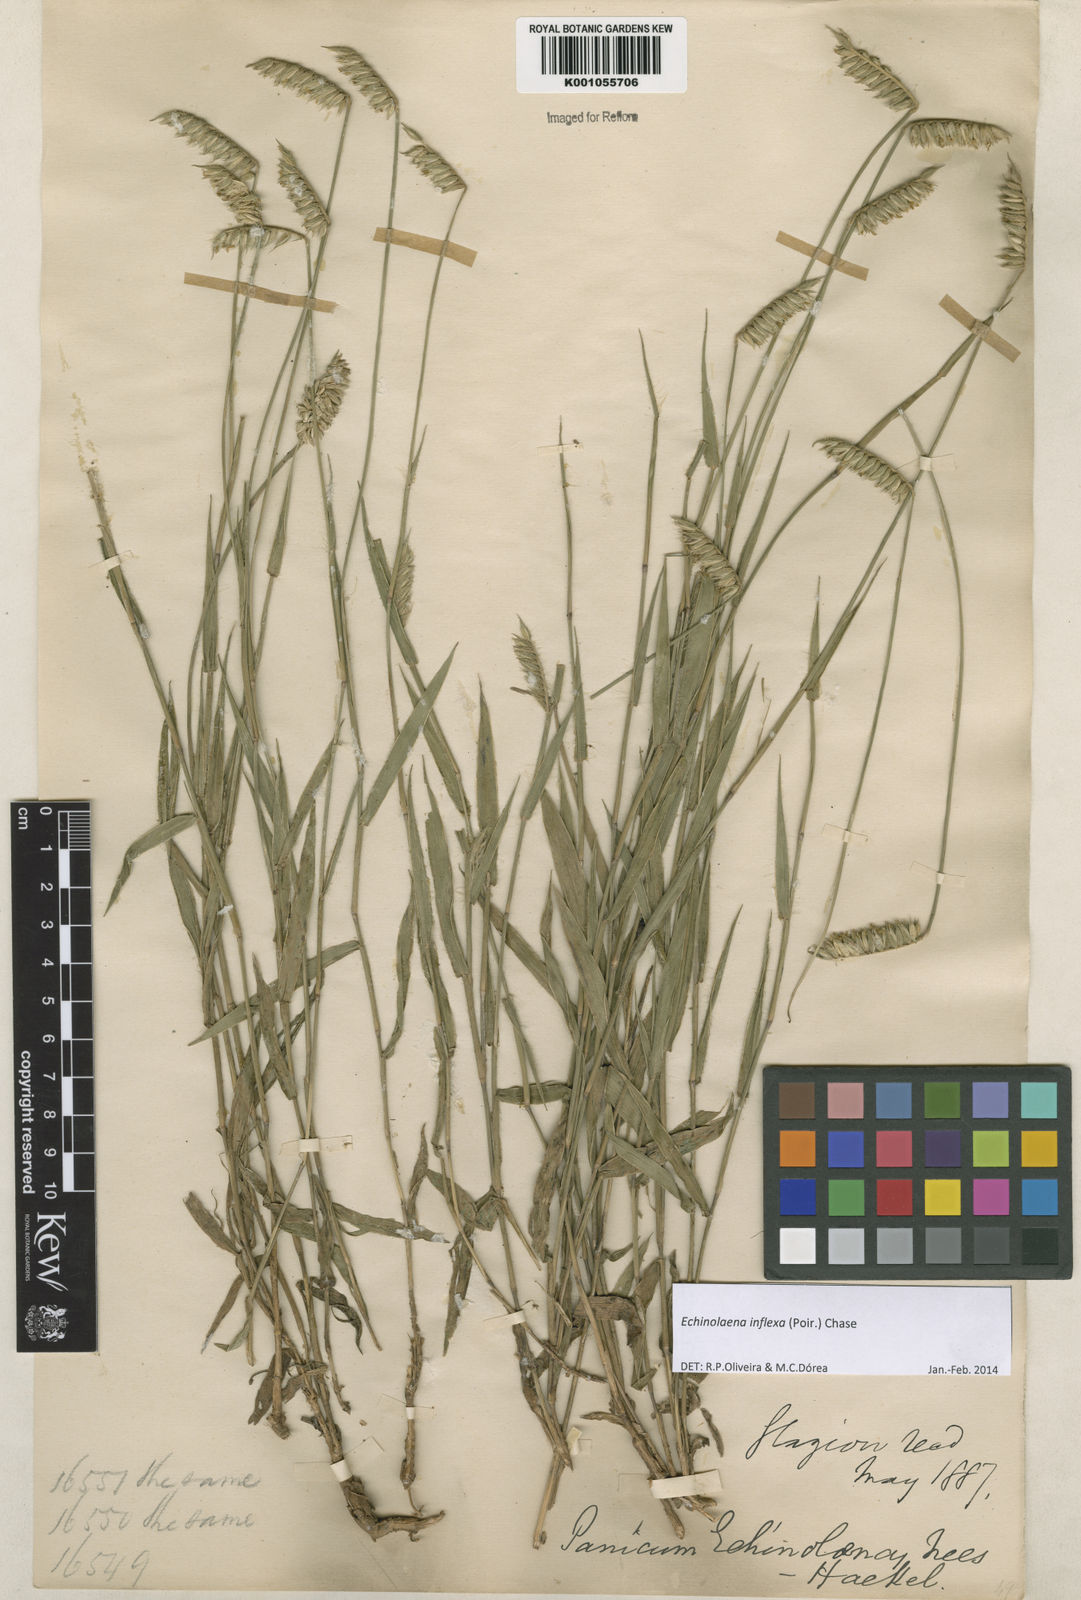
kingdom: Plantae
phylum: Tracheophyta
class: Liliopsida
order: Poales
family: Poaceae
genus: Echinolaena
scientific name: Echinolaena inflexa
